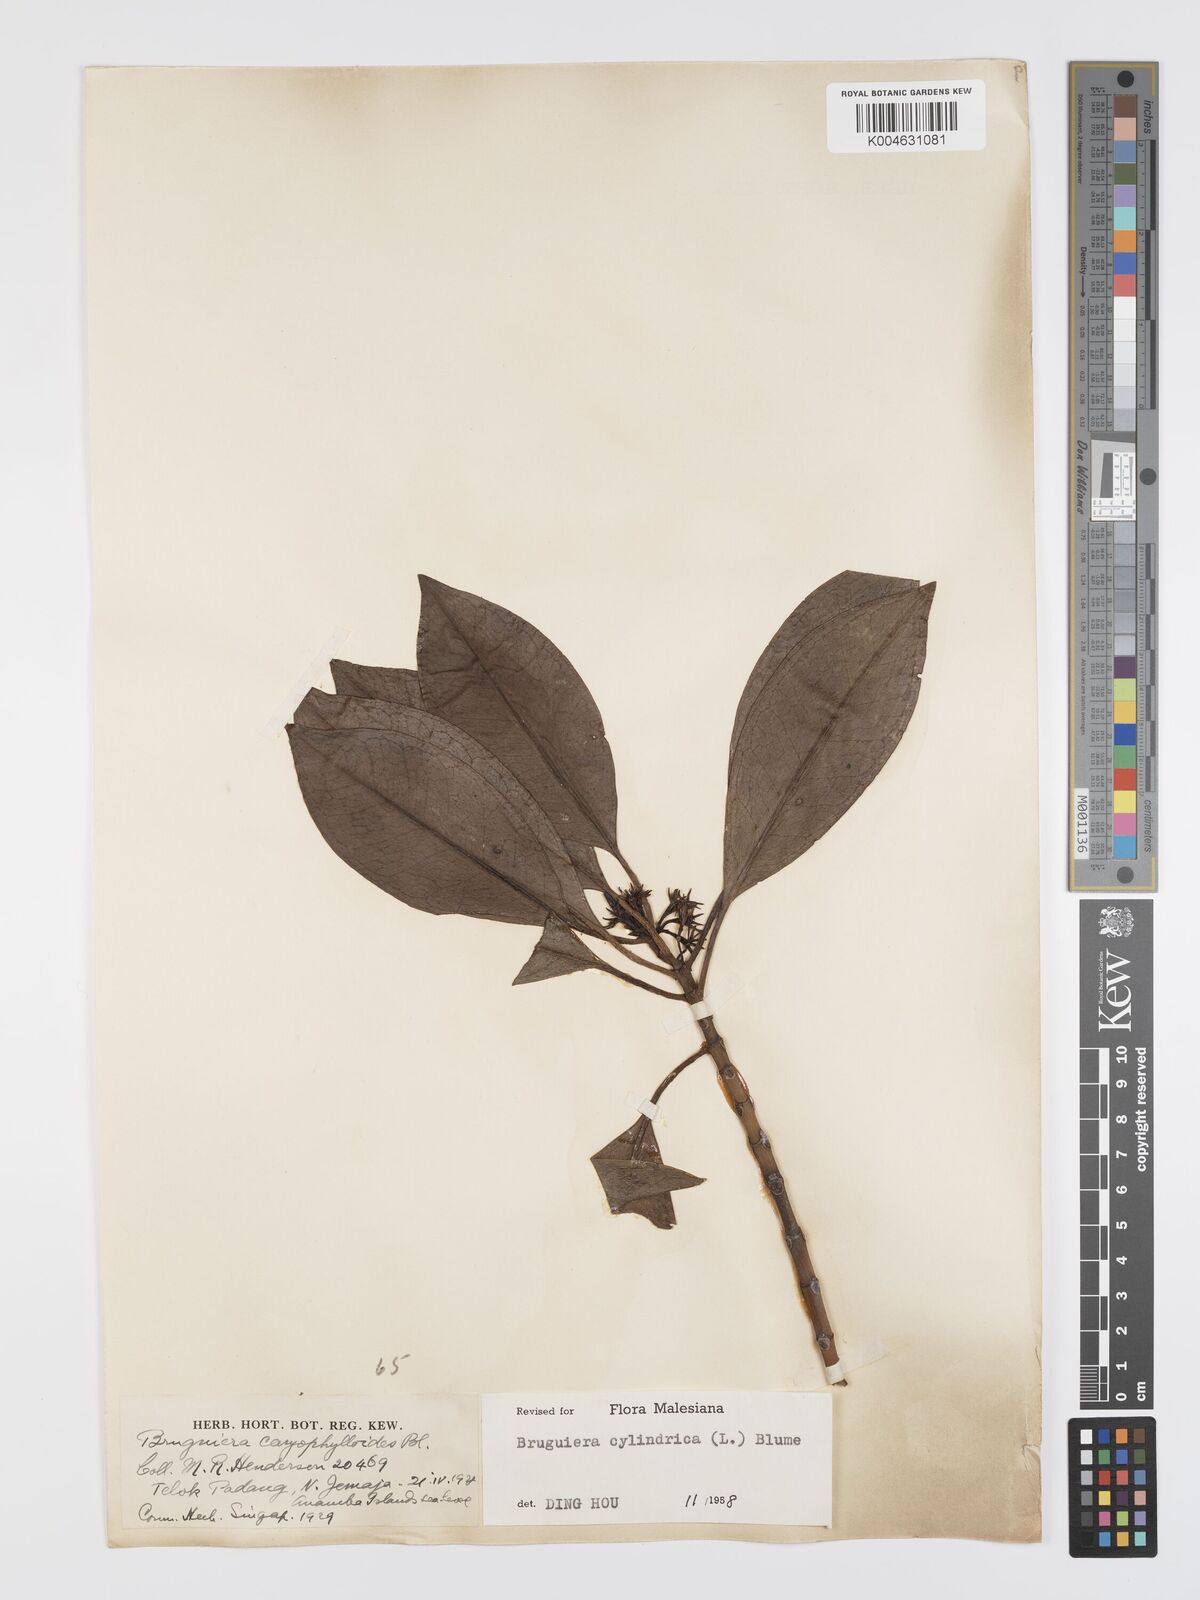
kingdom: Plantae
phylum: Tracheophyta
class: Magnoliopsida
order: Malpighiales
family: Rhizophoraceae
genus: Bruguiera
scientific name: Bruguiera cylindrica
